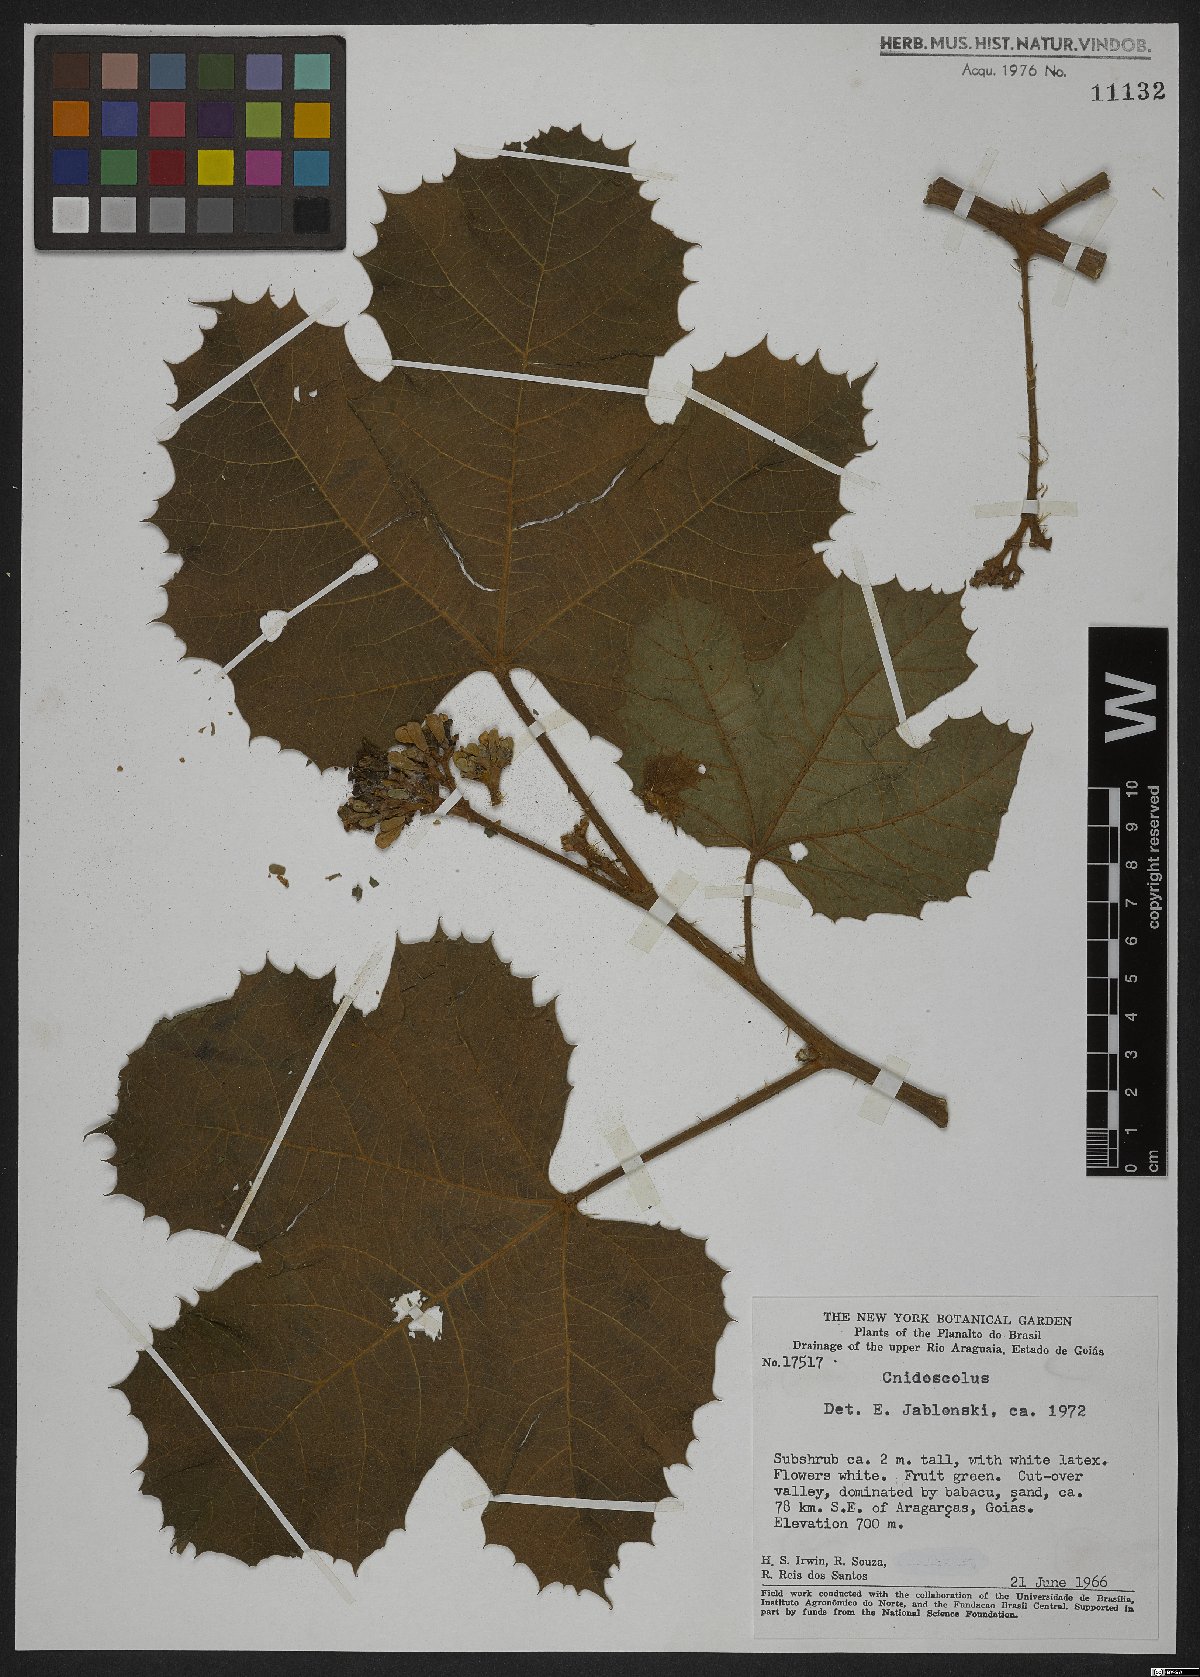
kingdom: Plantae
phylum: Tracheophyta
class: Magnoliopsida
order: Malpighiales
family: Euphorbiaceae
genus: Jatropha
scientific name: Jatropha
